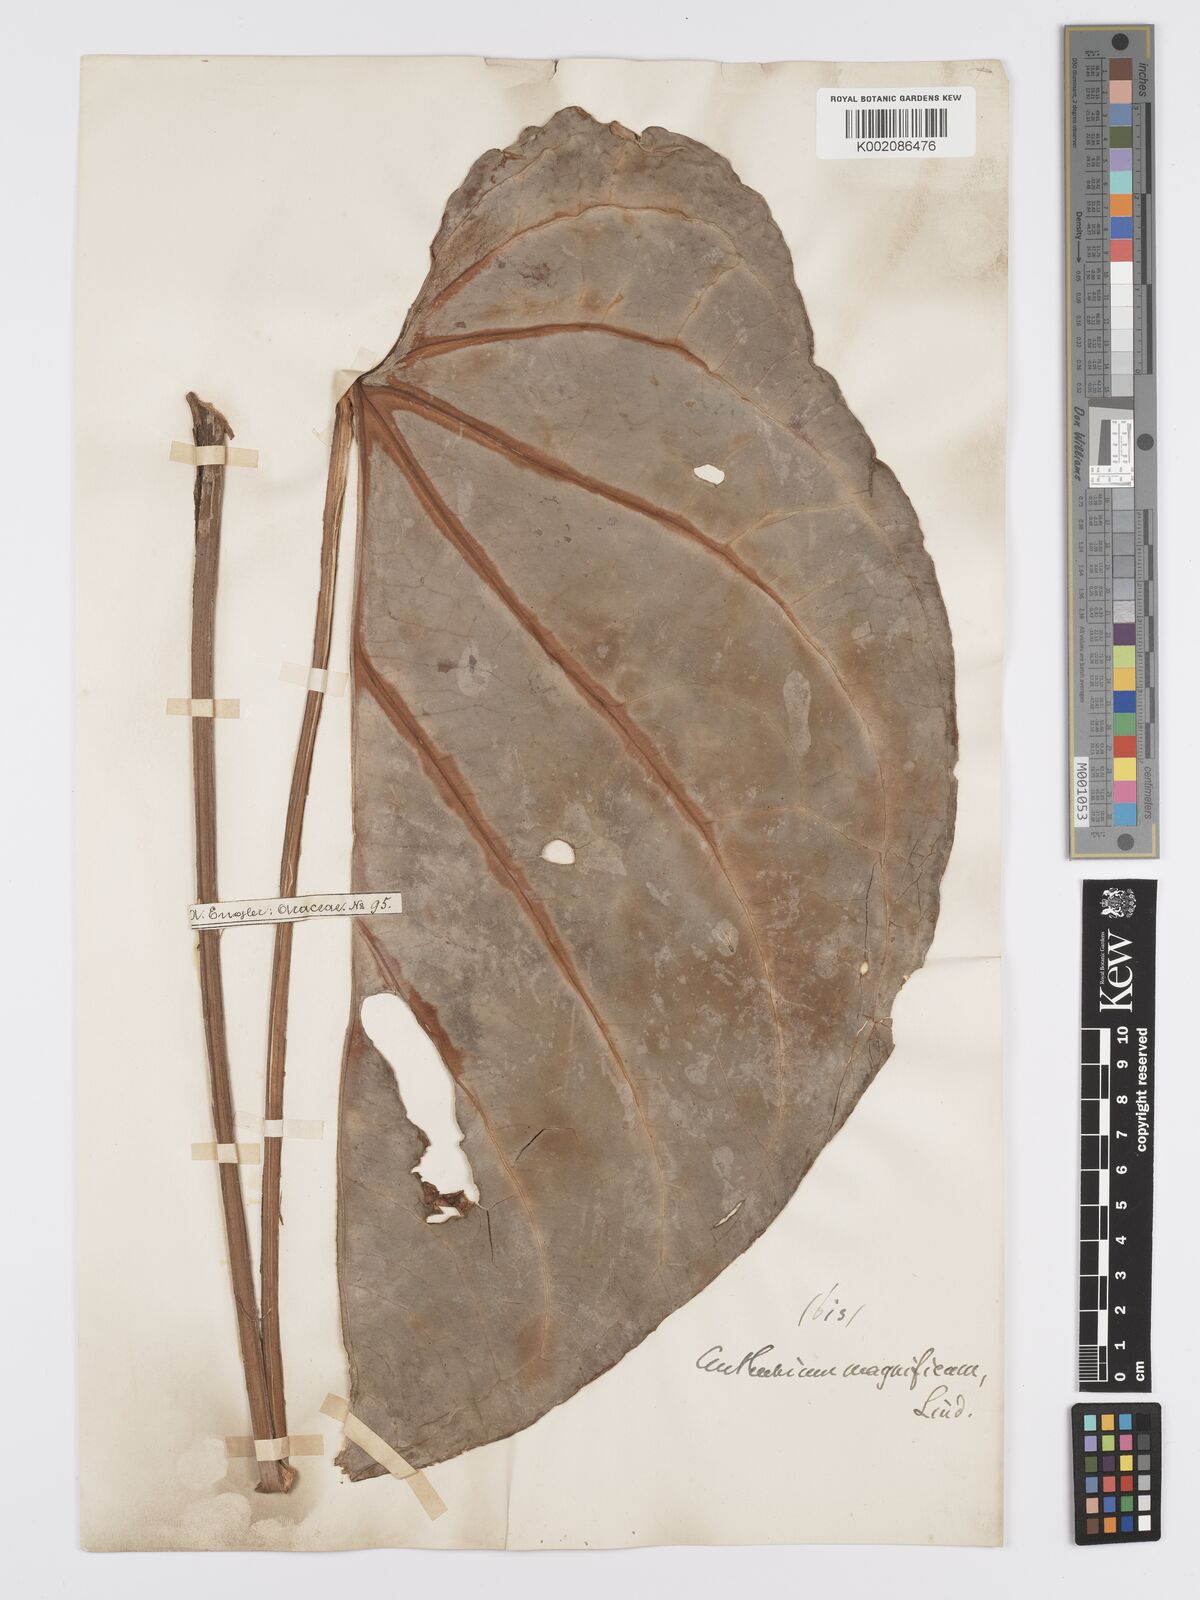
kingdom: Plantae
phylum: Tracheophyta
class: Liliopsida
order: Alismatales
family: Araceae
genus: Anthurium
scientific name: Anthurium magnificum
